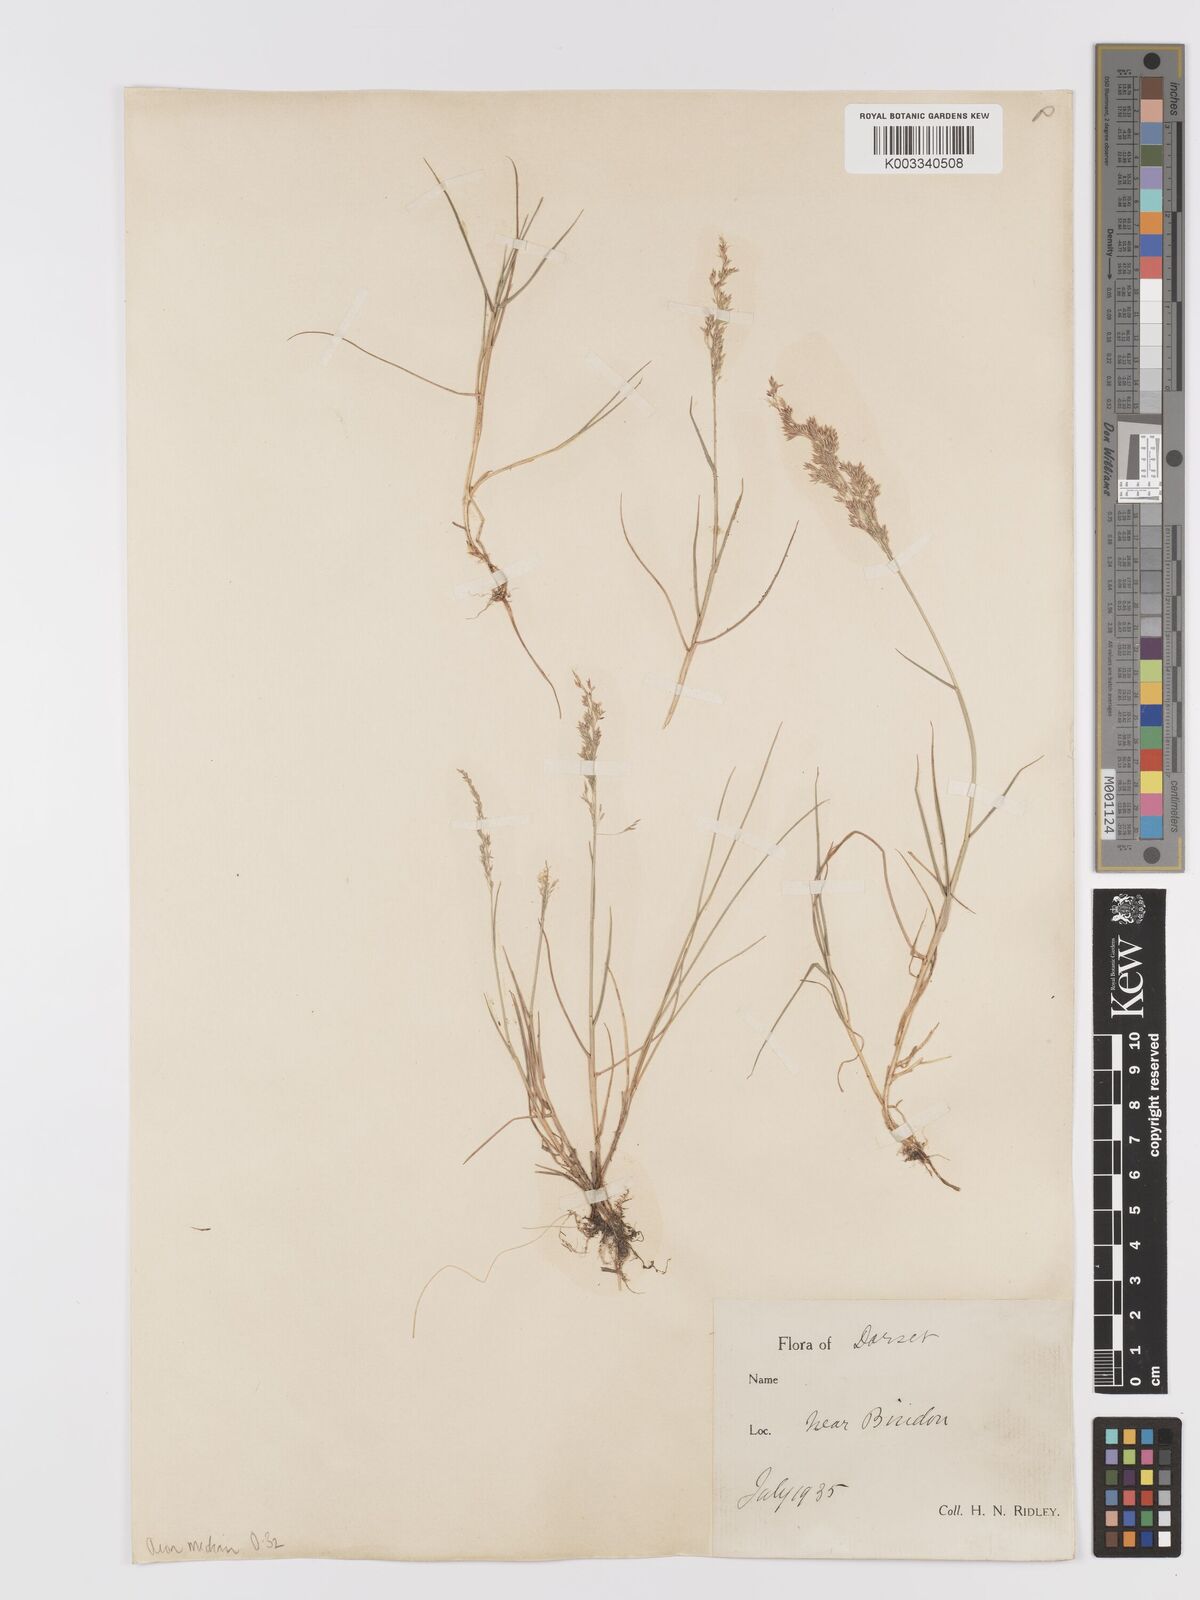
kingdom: Plantae
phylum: Tracheophyta
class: Liliopsida
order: Poales
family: Poaceae
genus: Agrostis
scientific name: Agrostis capillaris
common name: Colonial bentgrass
